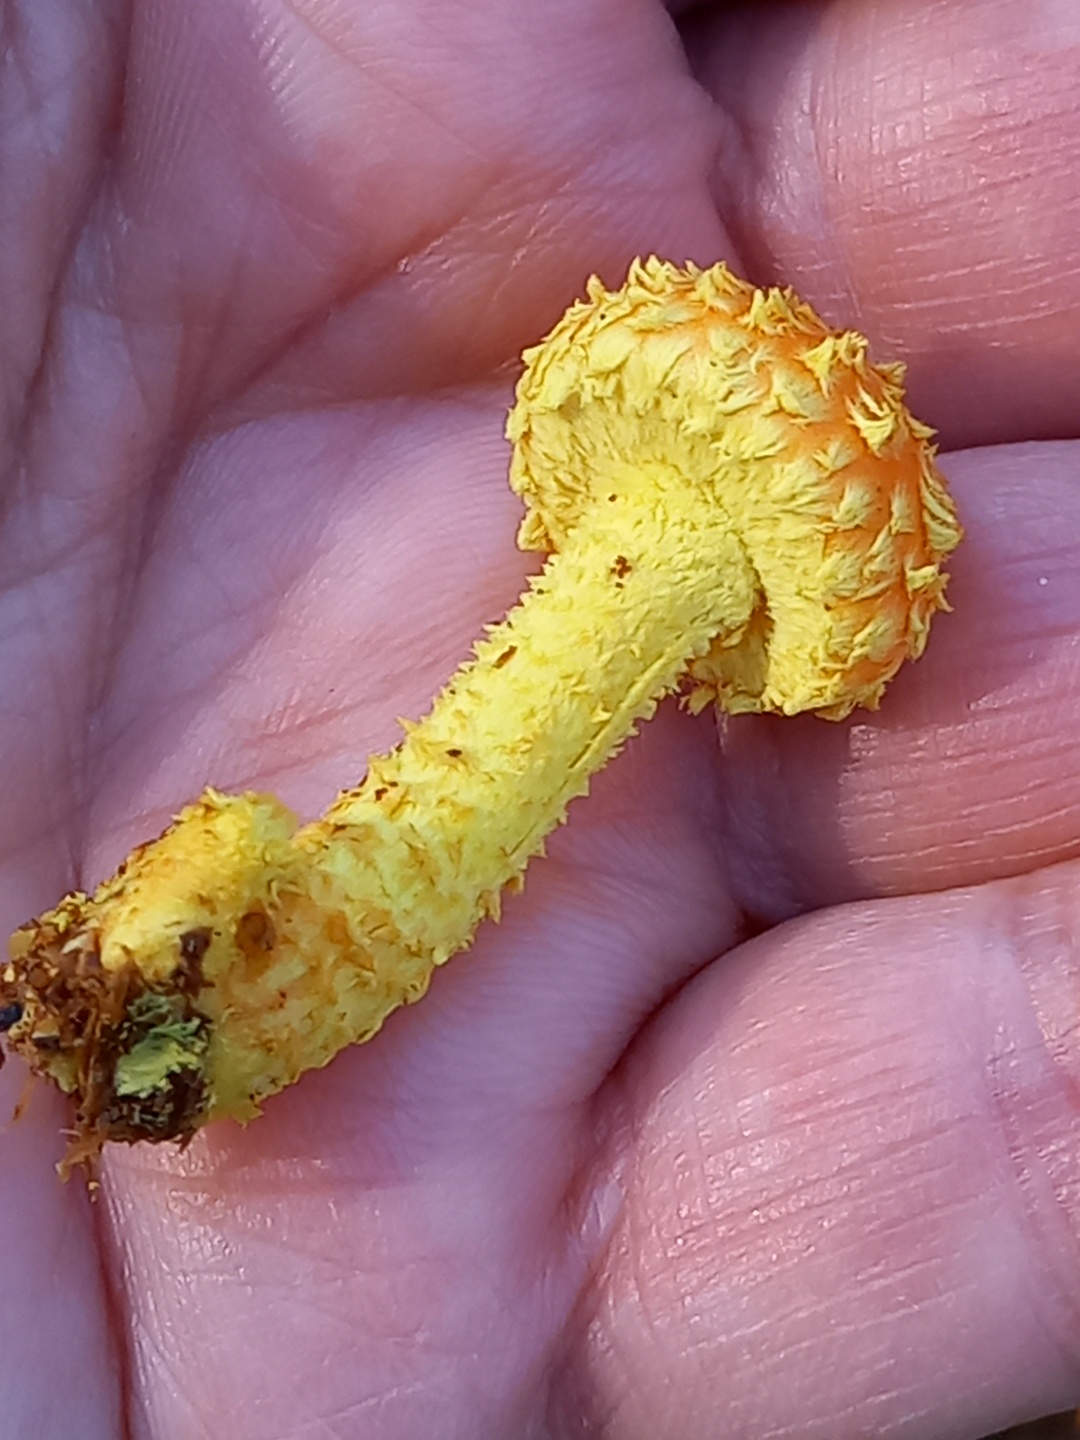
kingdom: Fungi
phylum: Basidiomycota
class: Agaricomycetes
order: Agaricales
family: Strophariaceae
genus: Pholiota
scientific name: Pholiota flammans
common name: flamme-skælhat
